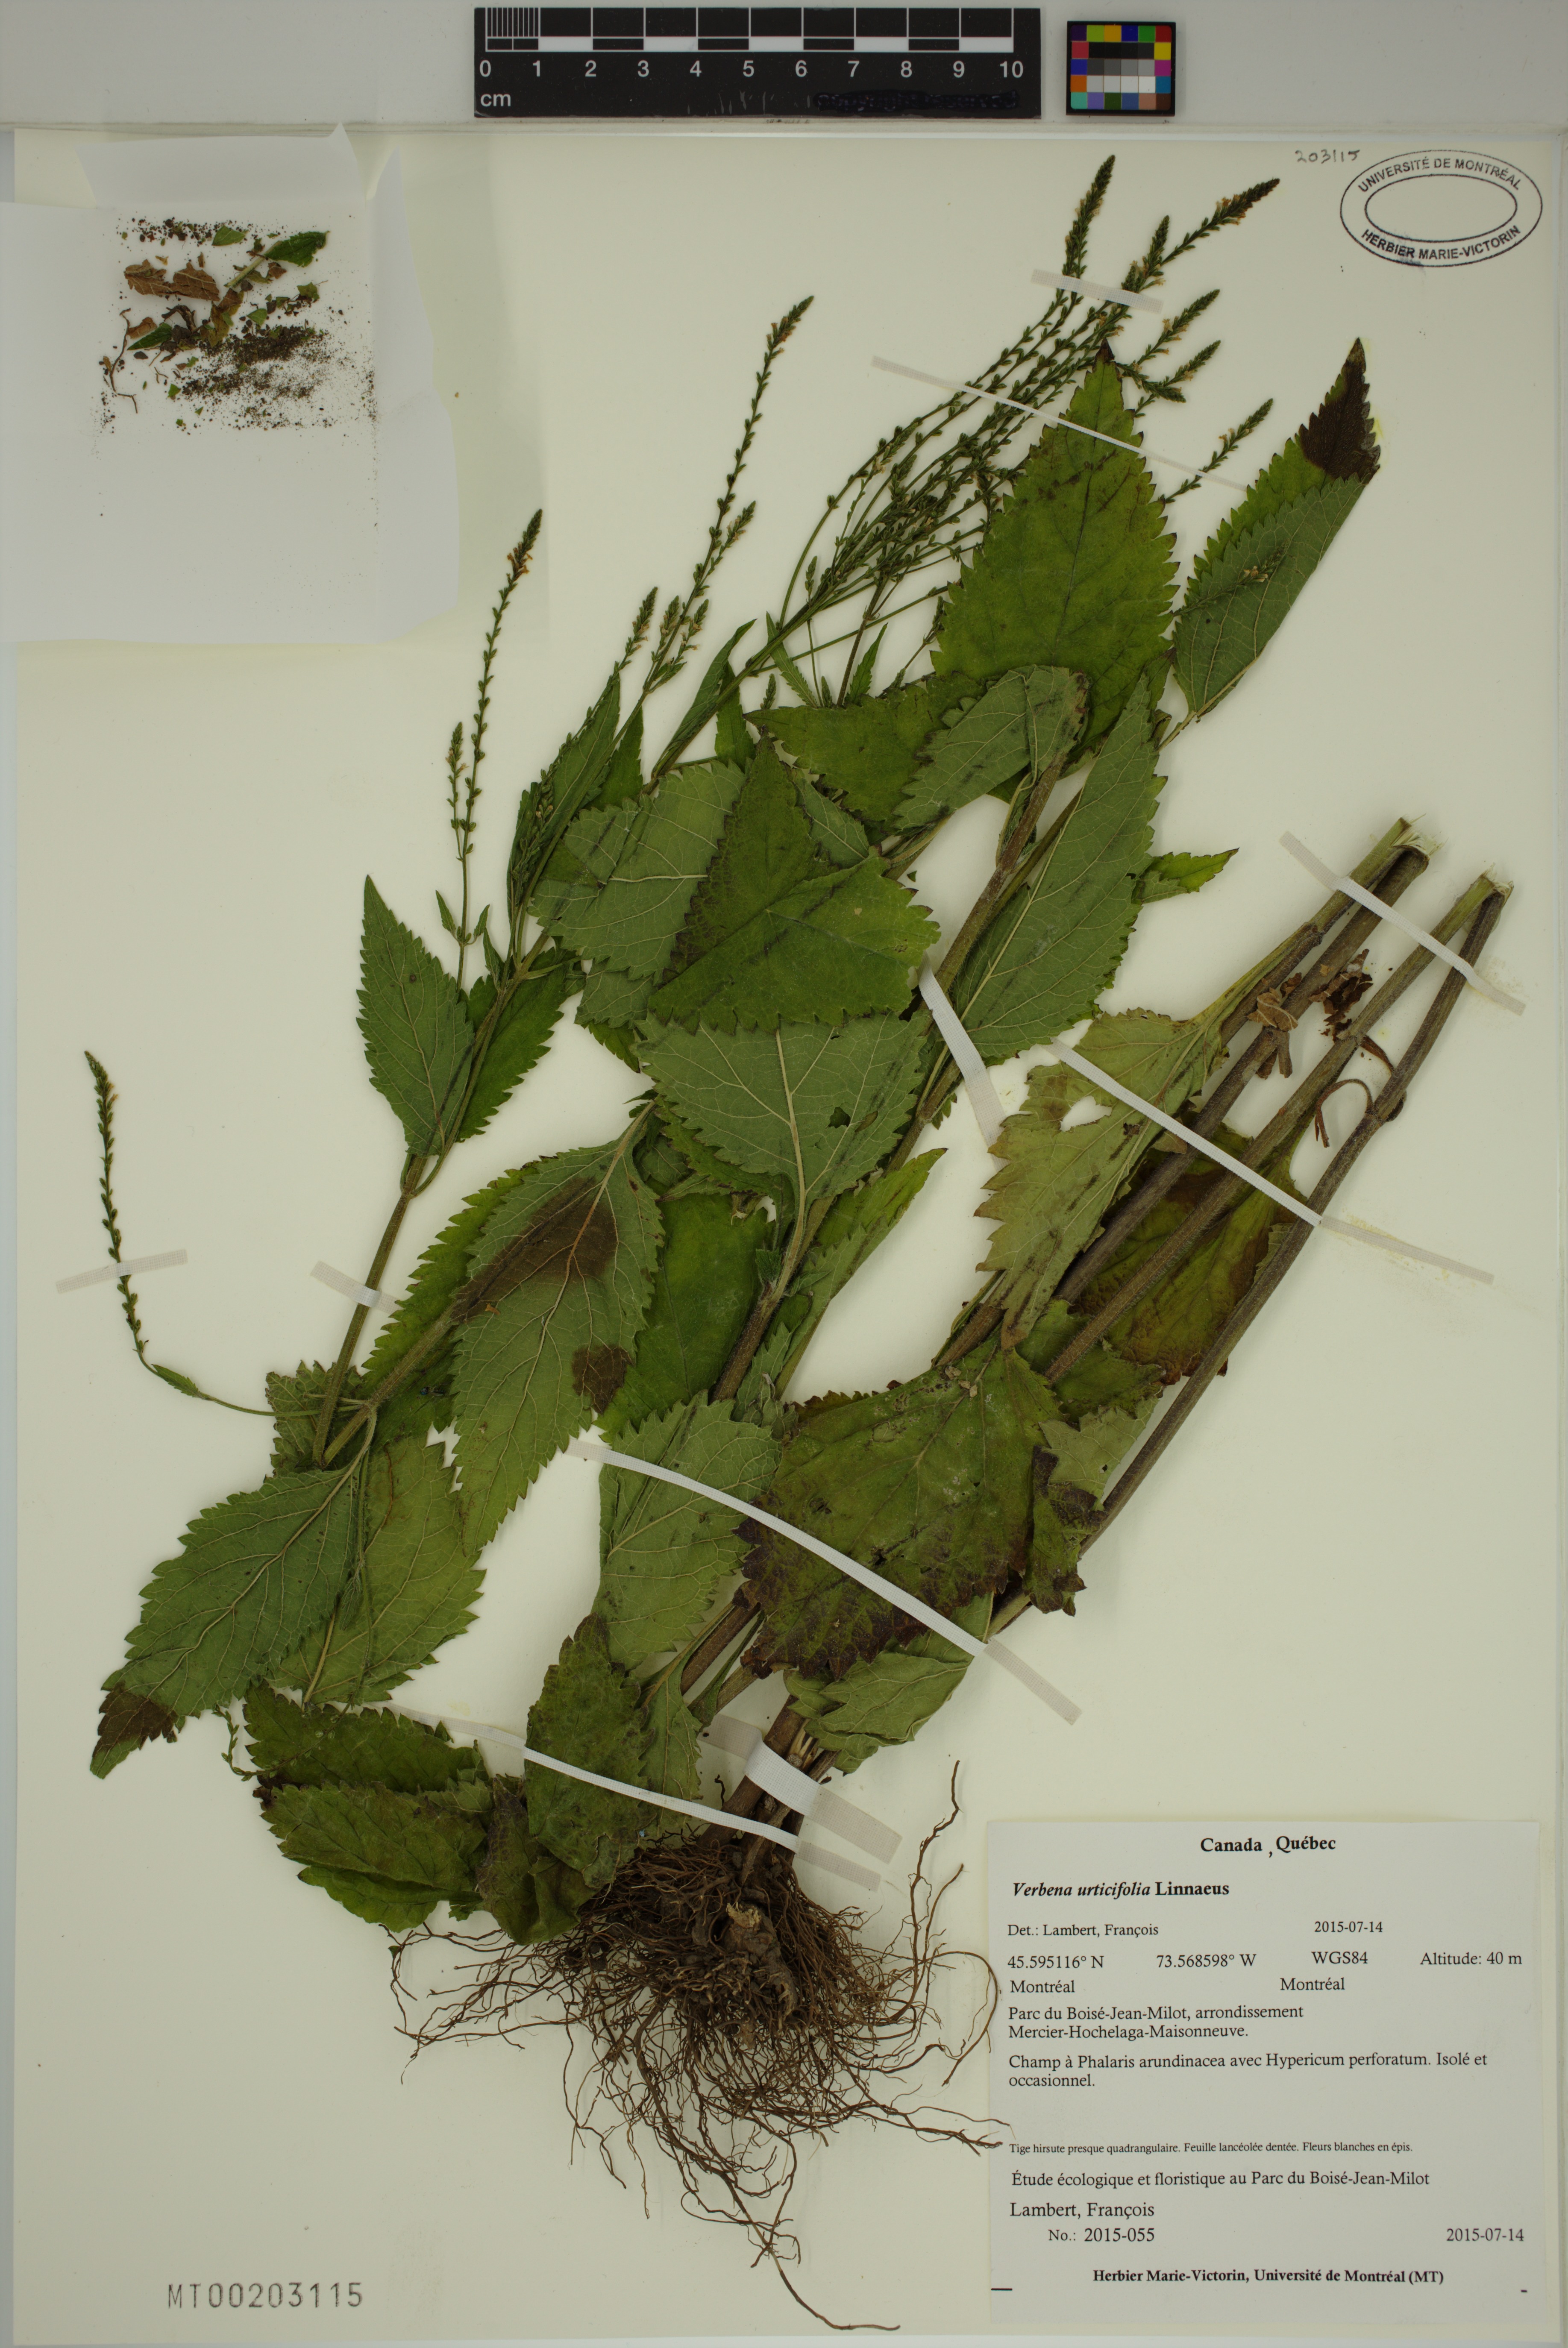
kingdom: Plantae
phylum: Tracheophyta
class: Magnoliopsida
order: Lamiales
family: Verbenaceae
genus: Verbena
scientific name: Verbena urticifolia
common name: Nettle-leaved vervain
